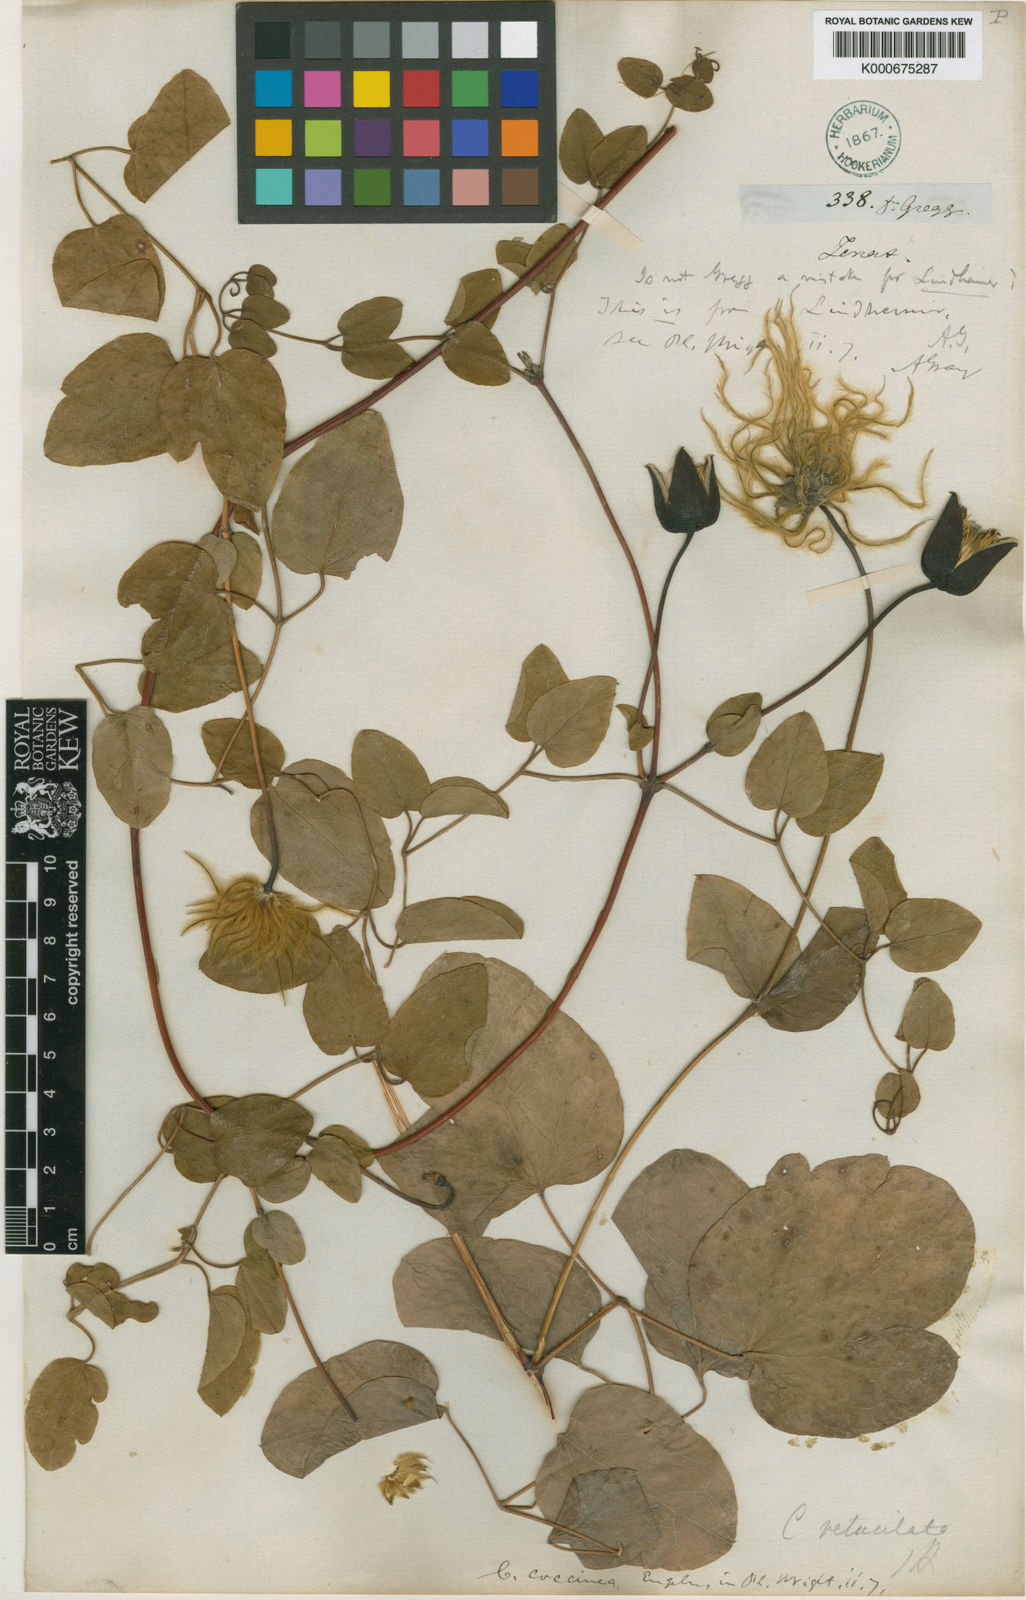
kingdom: Plantae
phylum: Tracheophyta
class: Magnoliopsida
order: Ranunculales
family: Ranunculaceae
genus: Clematis
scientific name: Clematis
